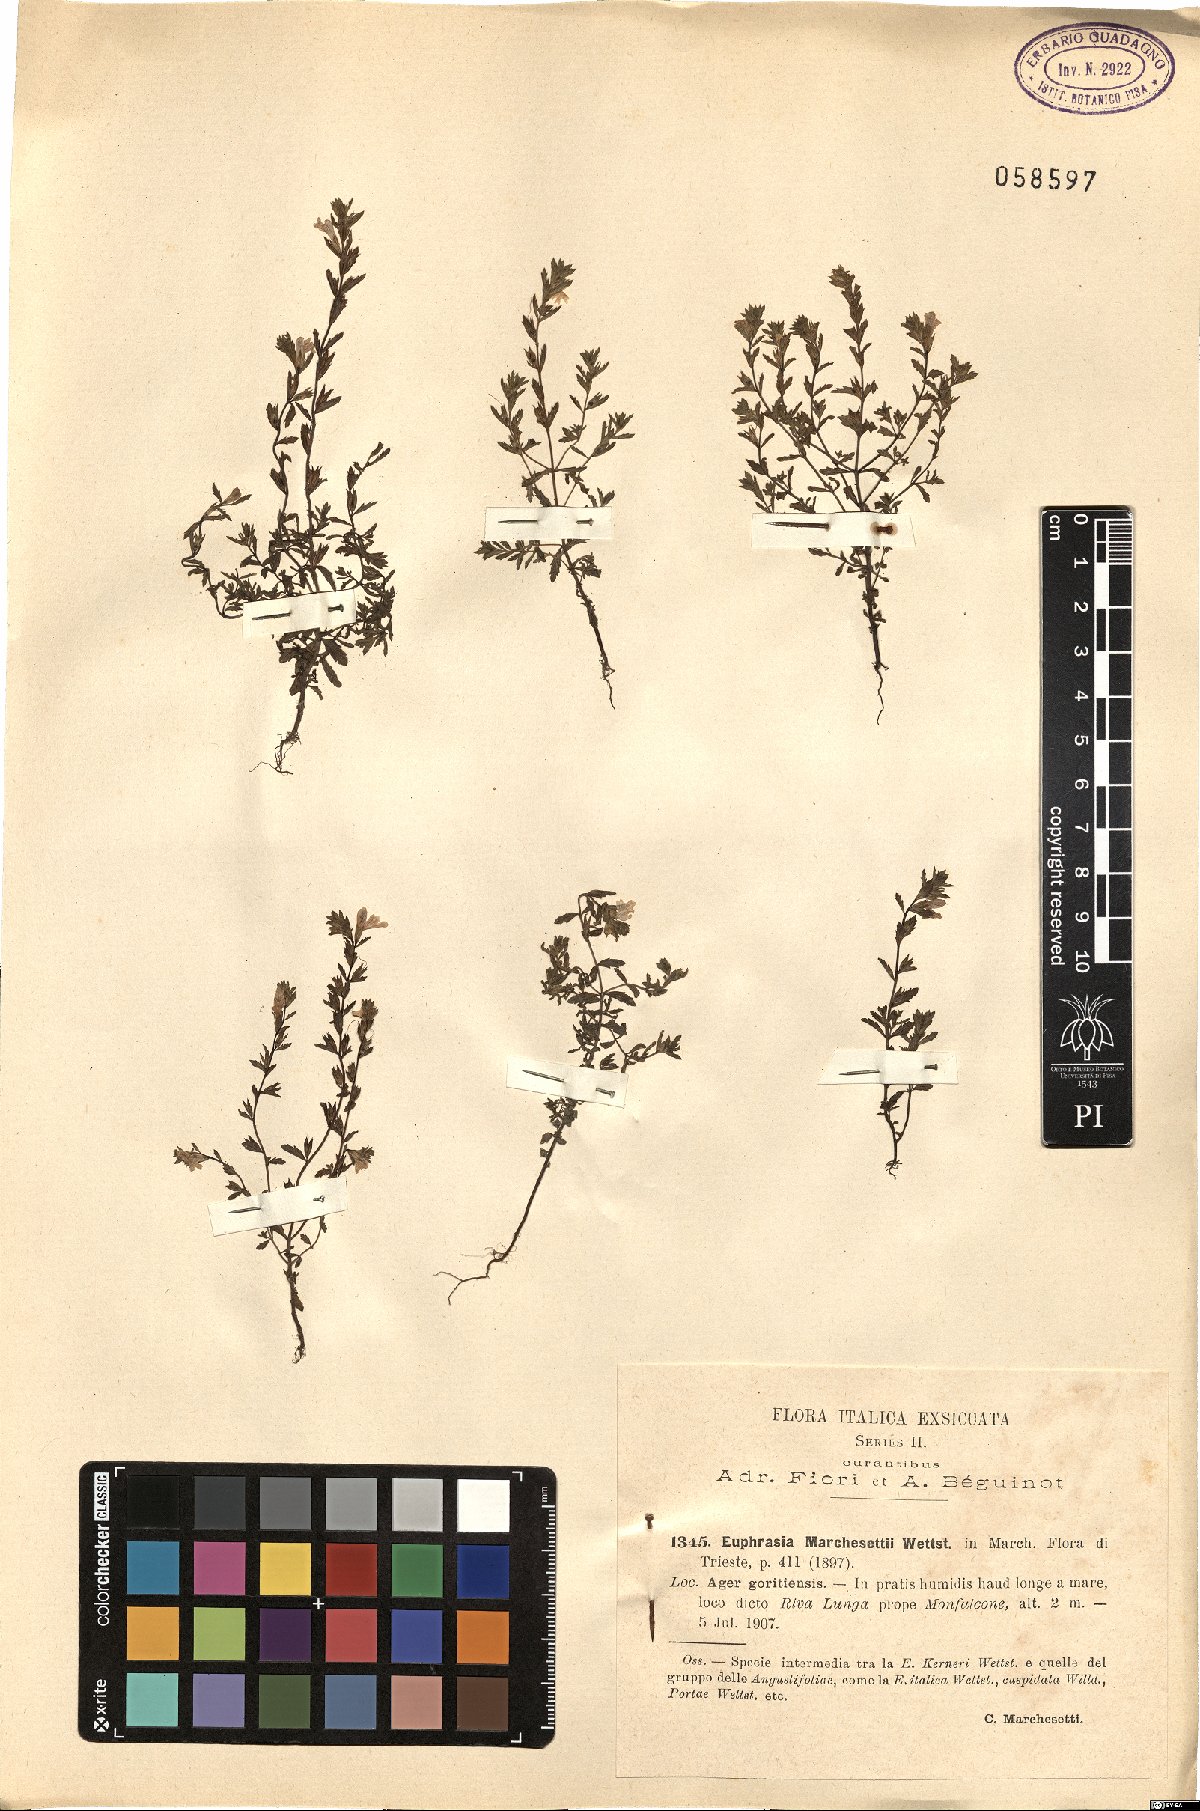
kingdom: Plantae
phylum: Tracheophyta
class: Magnoliopsida
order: Lamiales
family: Orobanchaceae
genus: Euphrasia
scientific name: Euphrasia marchesettii
